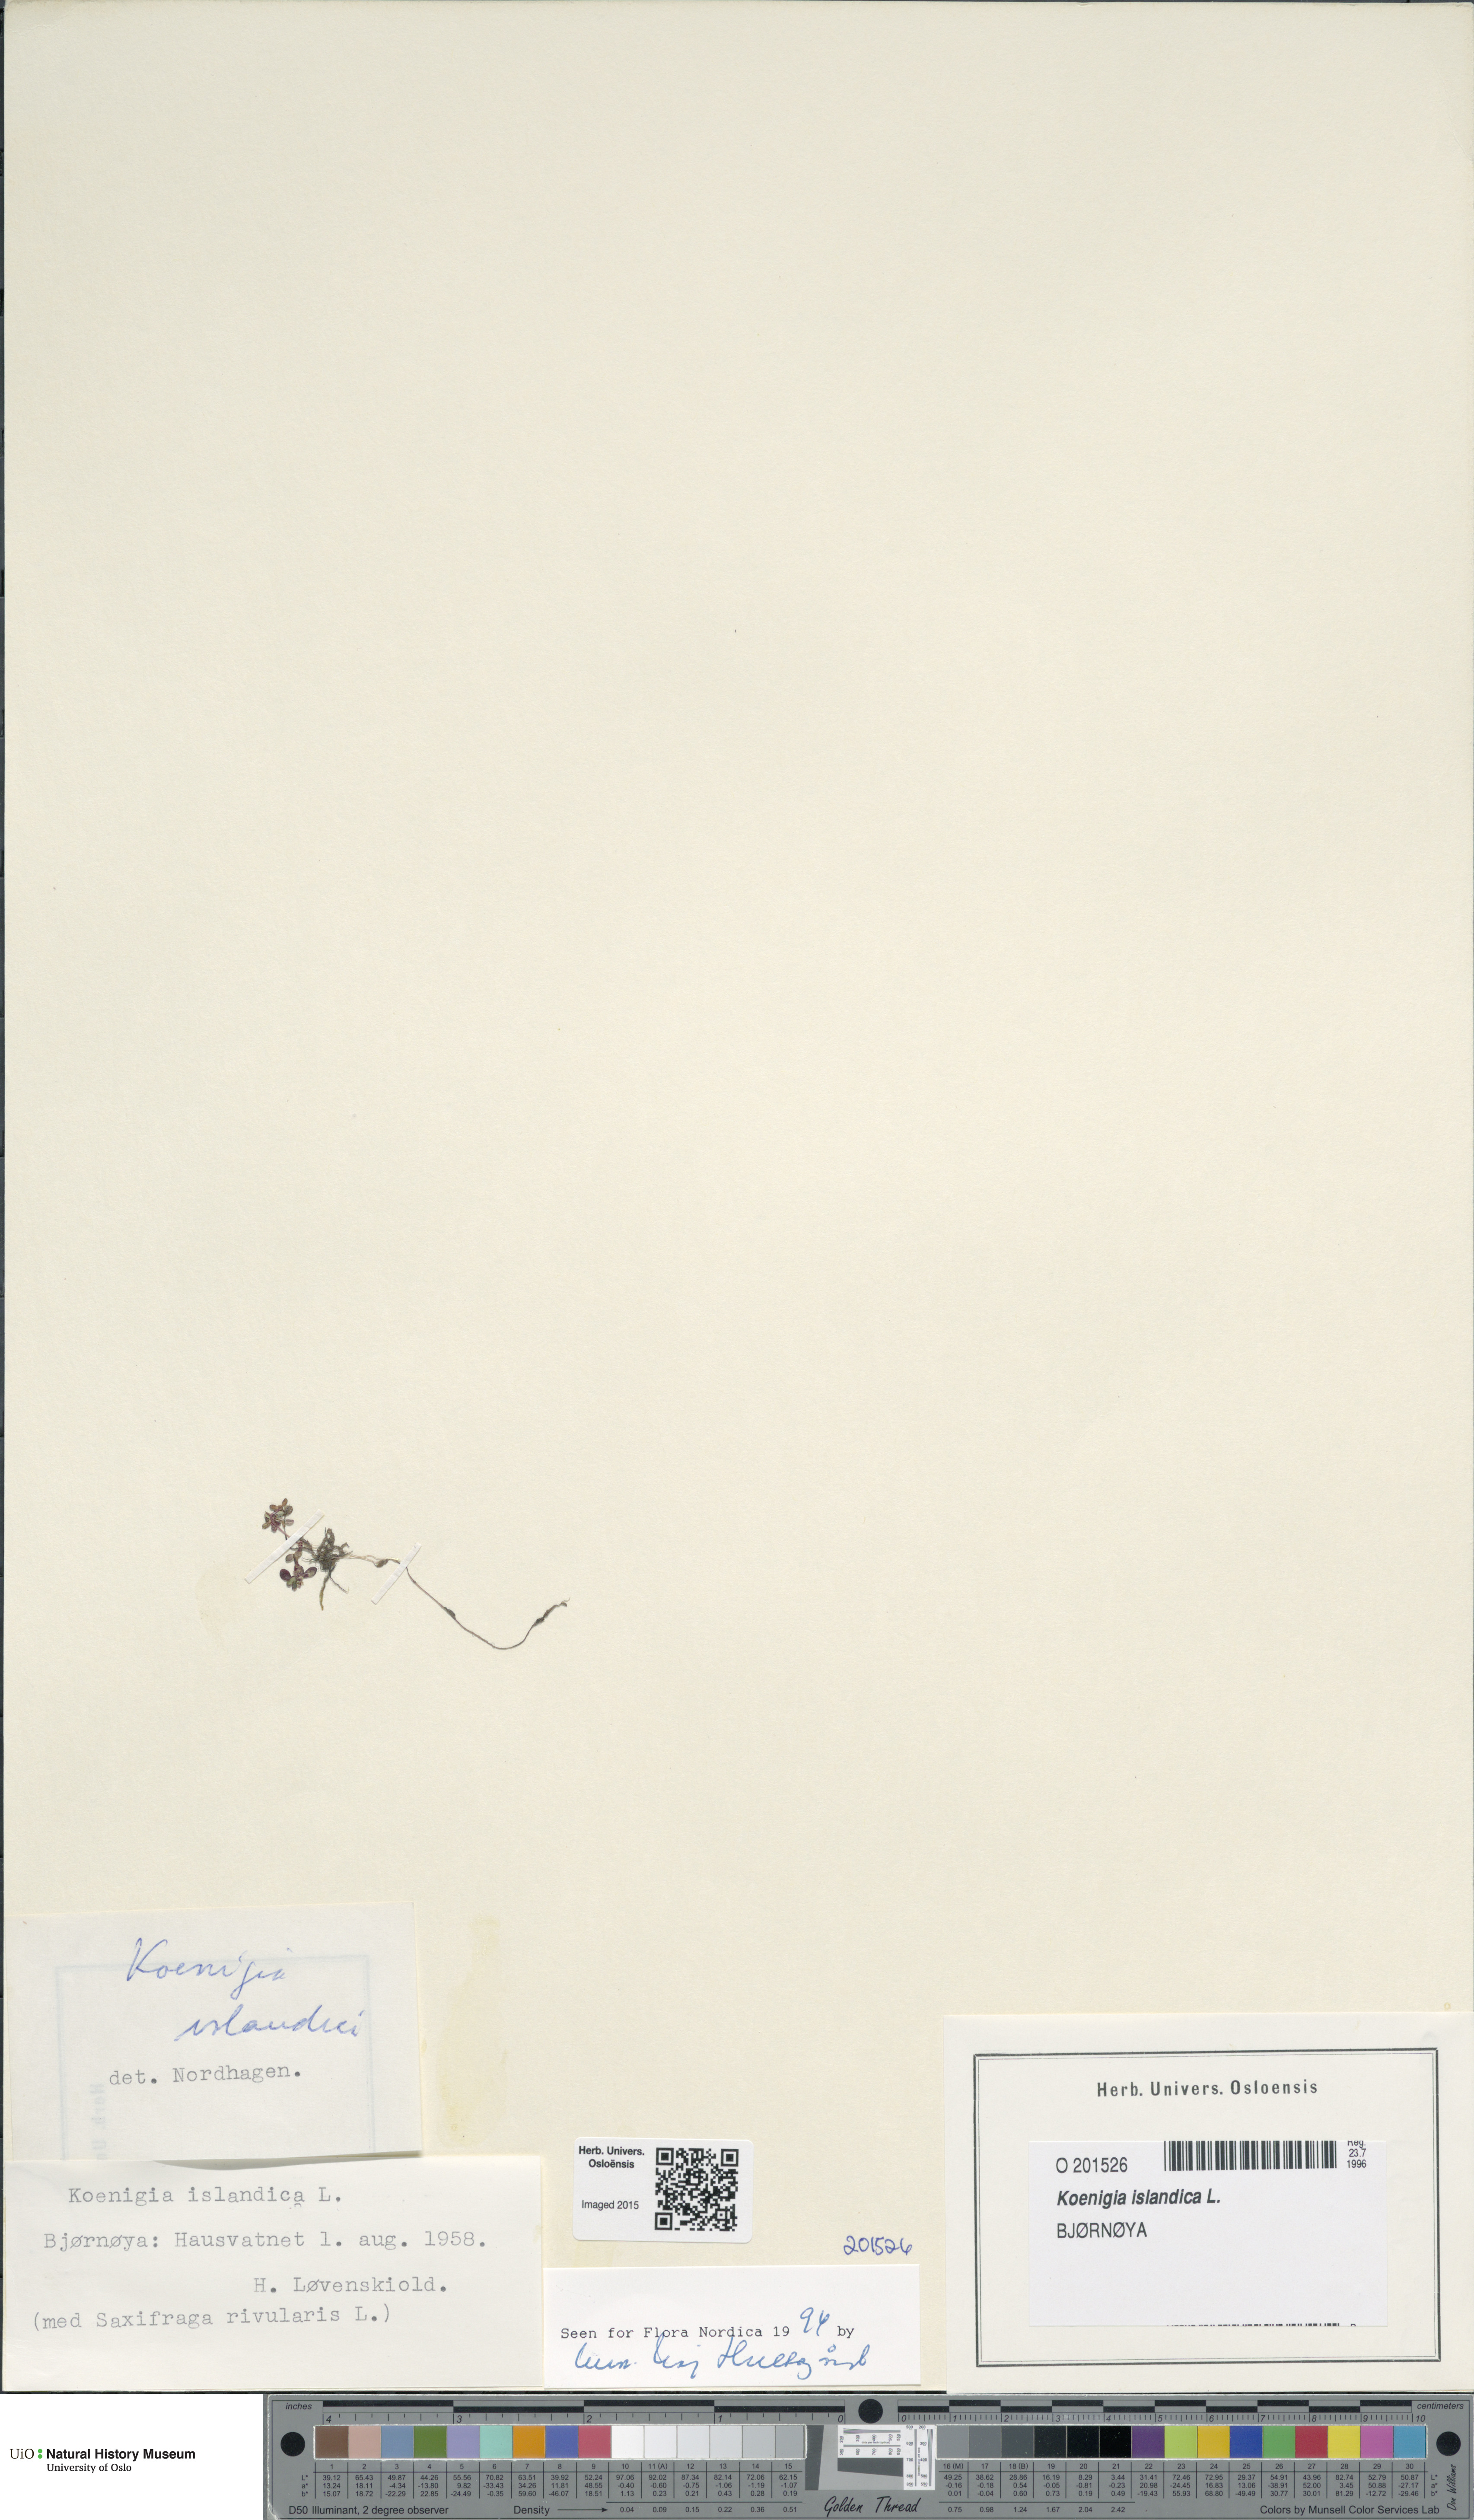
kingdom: Plantae
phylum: Tracheophyta
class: Magnoliopsida
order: Caryophyllales
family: Polygonaceae
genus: Koenigia
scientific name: Koenigia islandica
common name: Iceland-purslane
